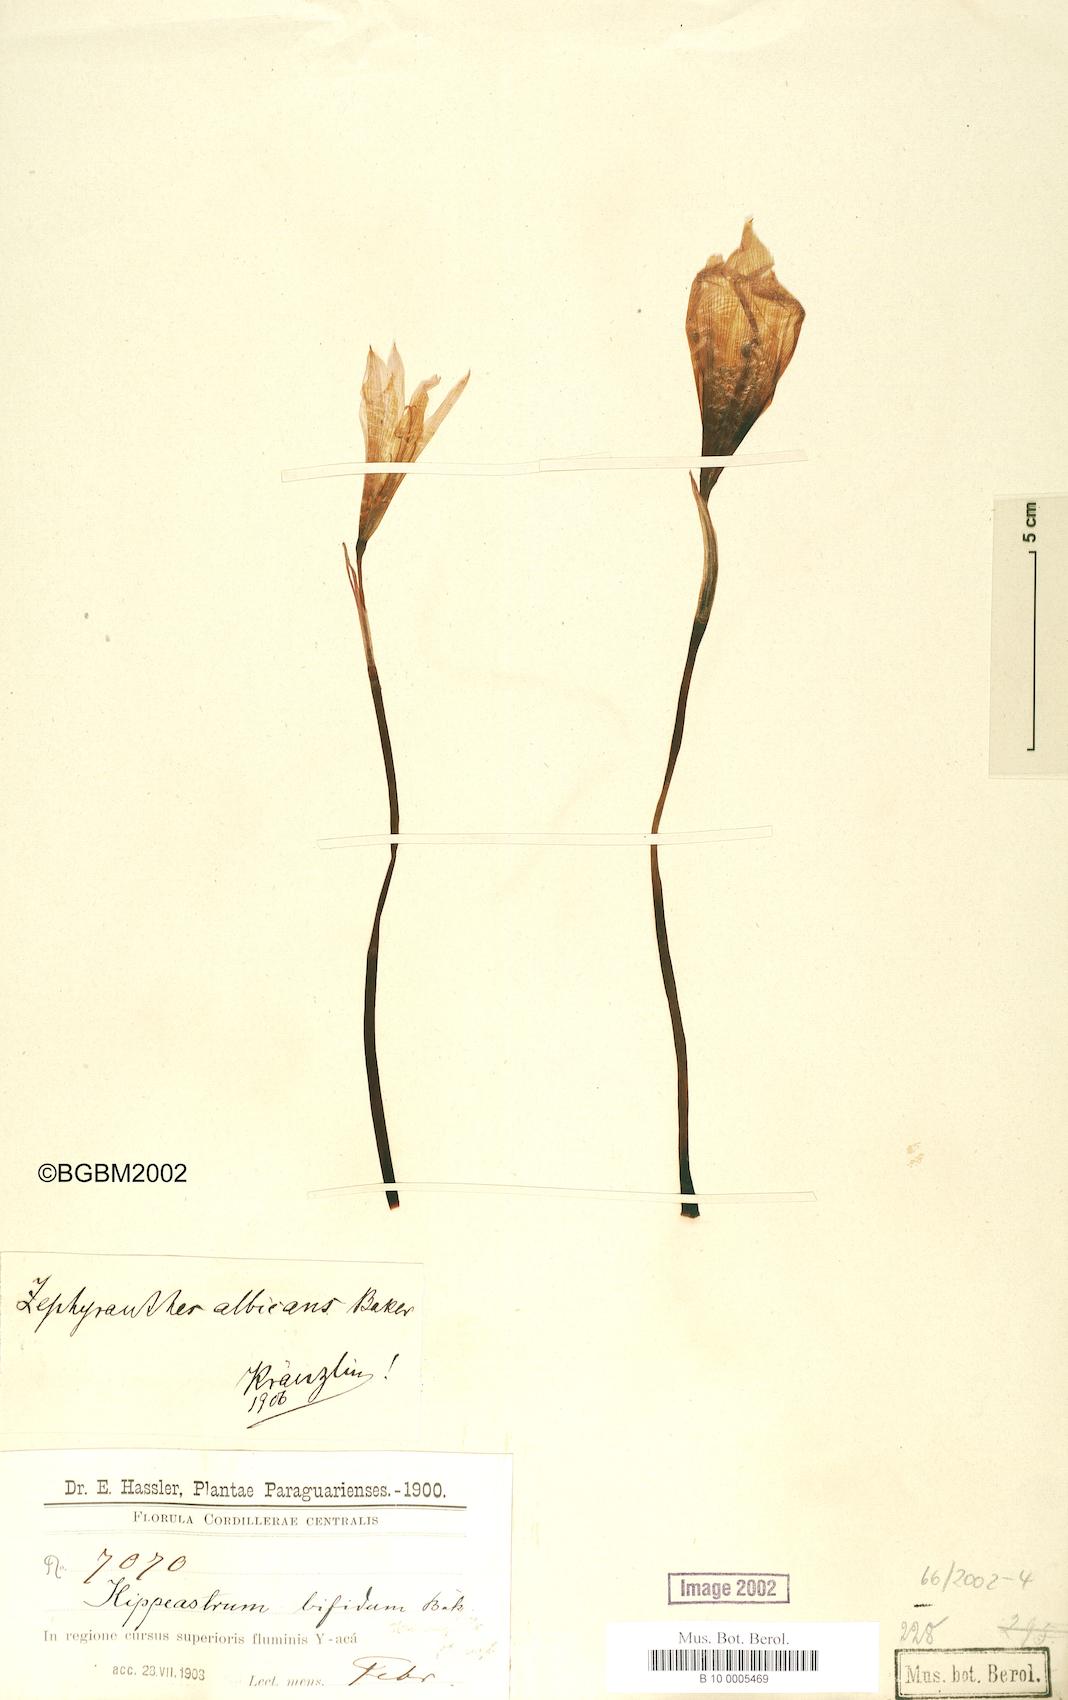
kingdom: Plantae
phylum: Tracheophyta
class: Liliopsida
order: Asparagales
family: Amaryllidaceae
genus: Pyrolirion
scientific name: Pyrolirion albicans
